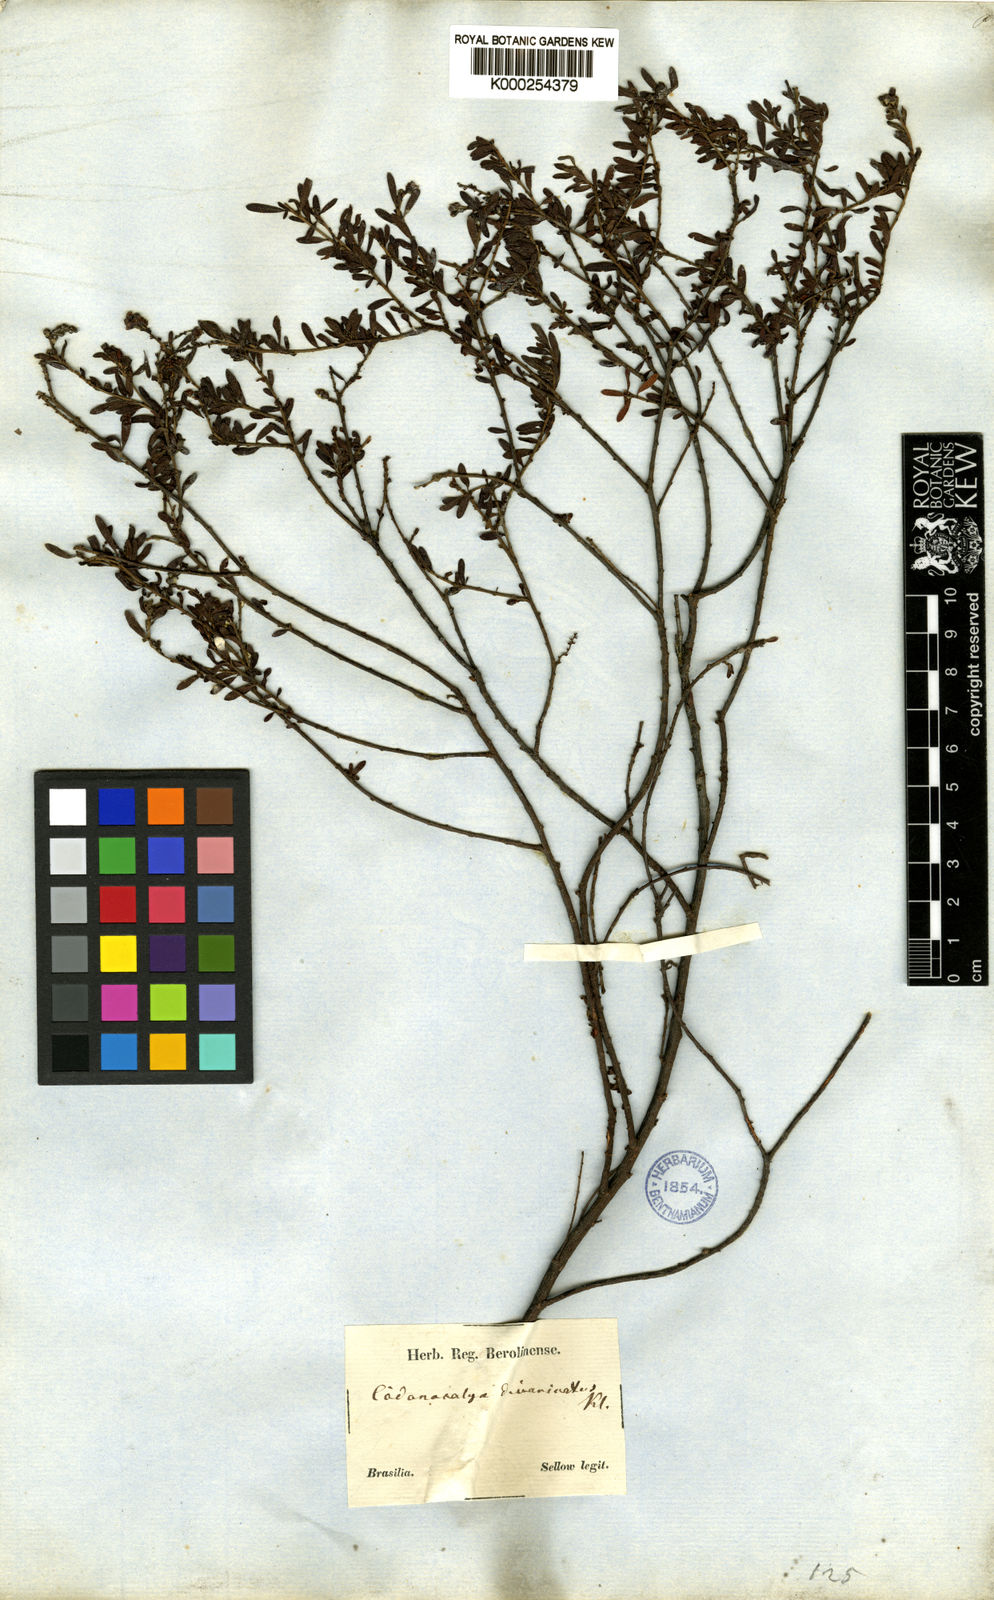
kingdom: Plantae
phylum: Tracheophyta
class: Magnoliopsida
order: Malpighiales
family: Euphorbiaceae
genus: Croton
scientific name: Croton nitrariifolius
